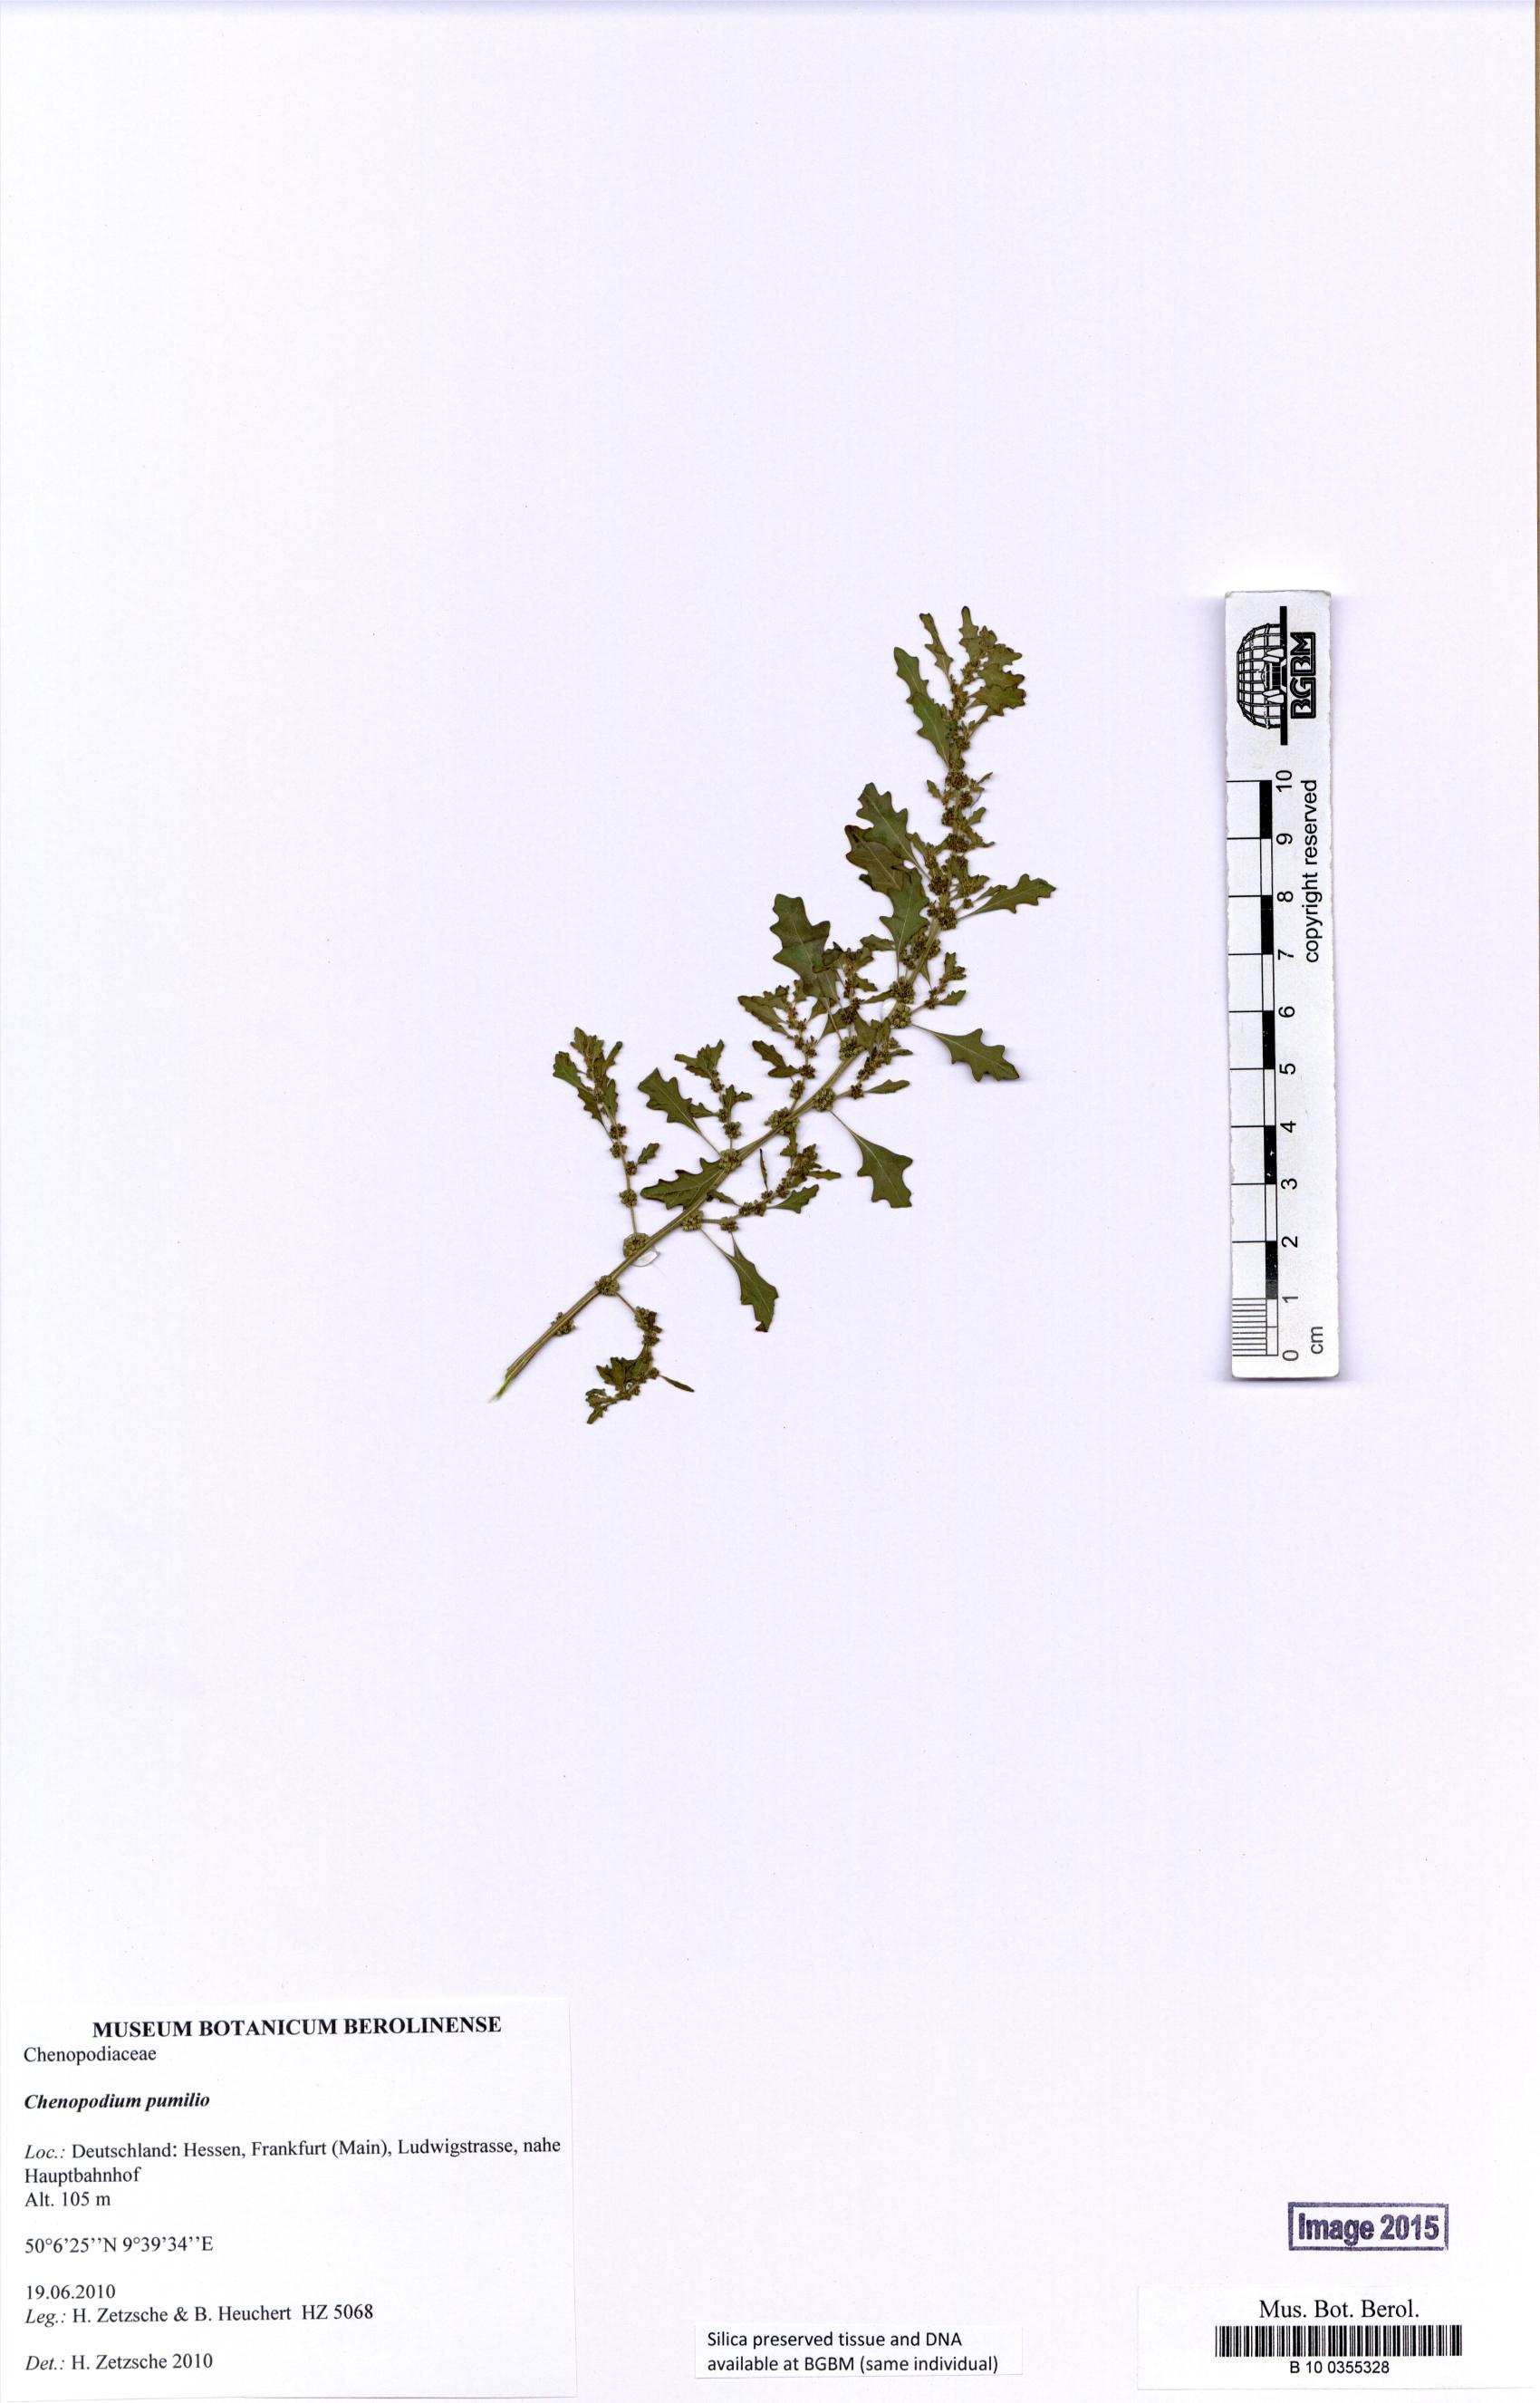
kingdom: Plantae
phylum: Tracheophyta
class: Magnoliopsida
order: Caryophyllales
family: Amaranthaceae
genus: Dysphania
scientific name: Dysphania pumilio
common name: Clammy goosefoot
